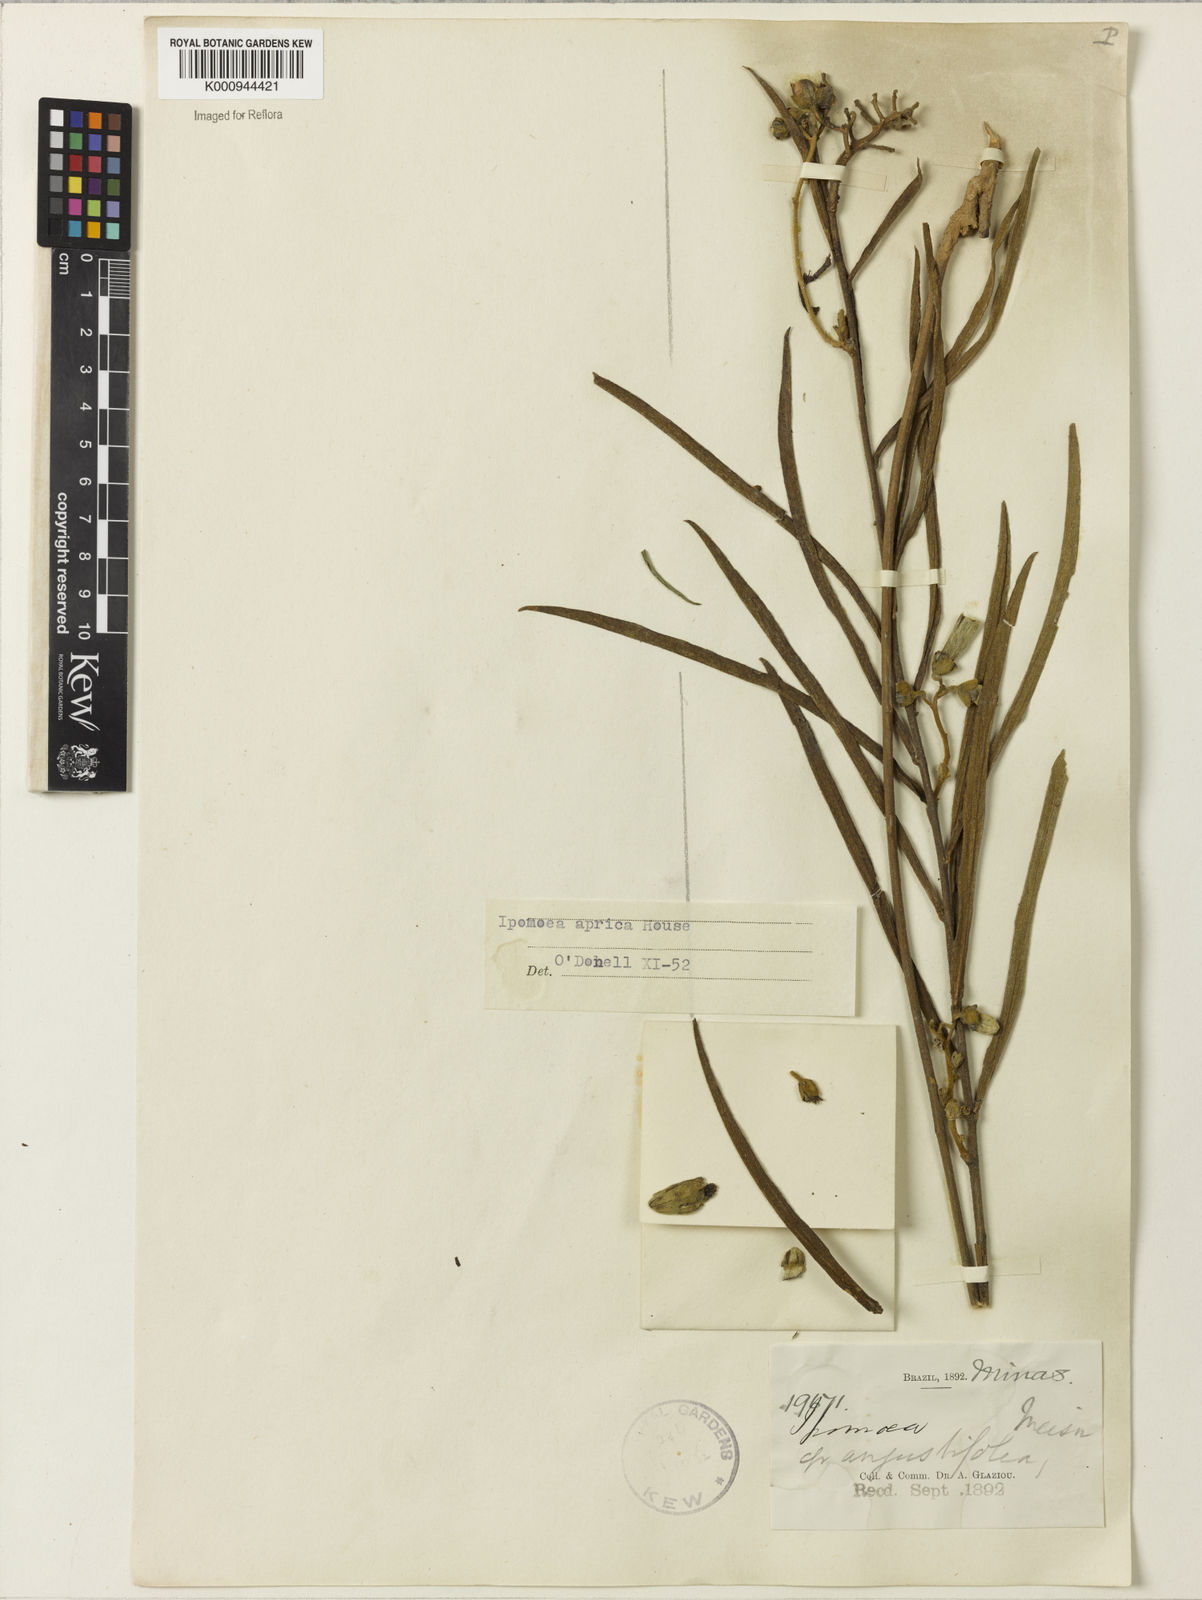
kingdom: Plantae
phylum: Tracheophyta
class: Magnoliopsida
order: Solanales
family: Convolvulaceae
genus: Ipomoea
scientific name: Ipomoea aprica
